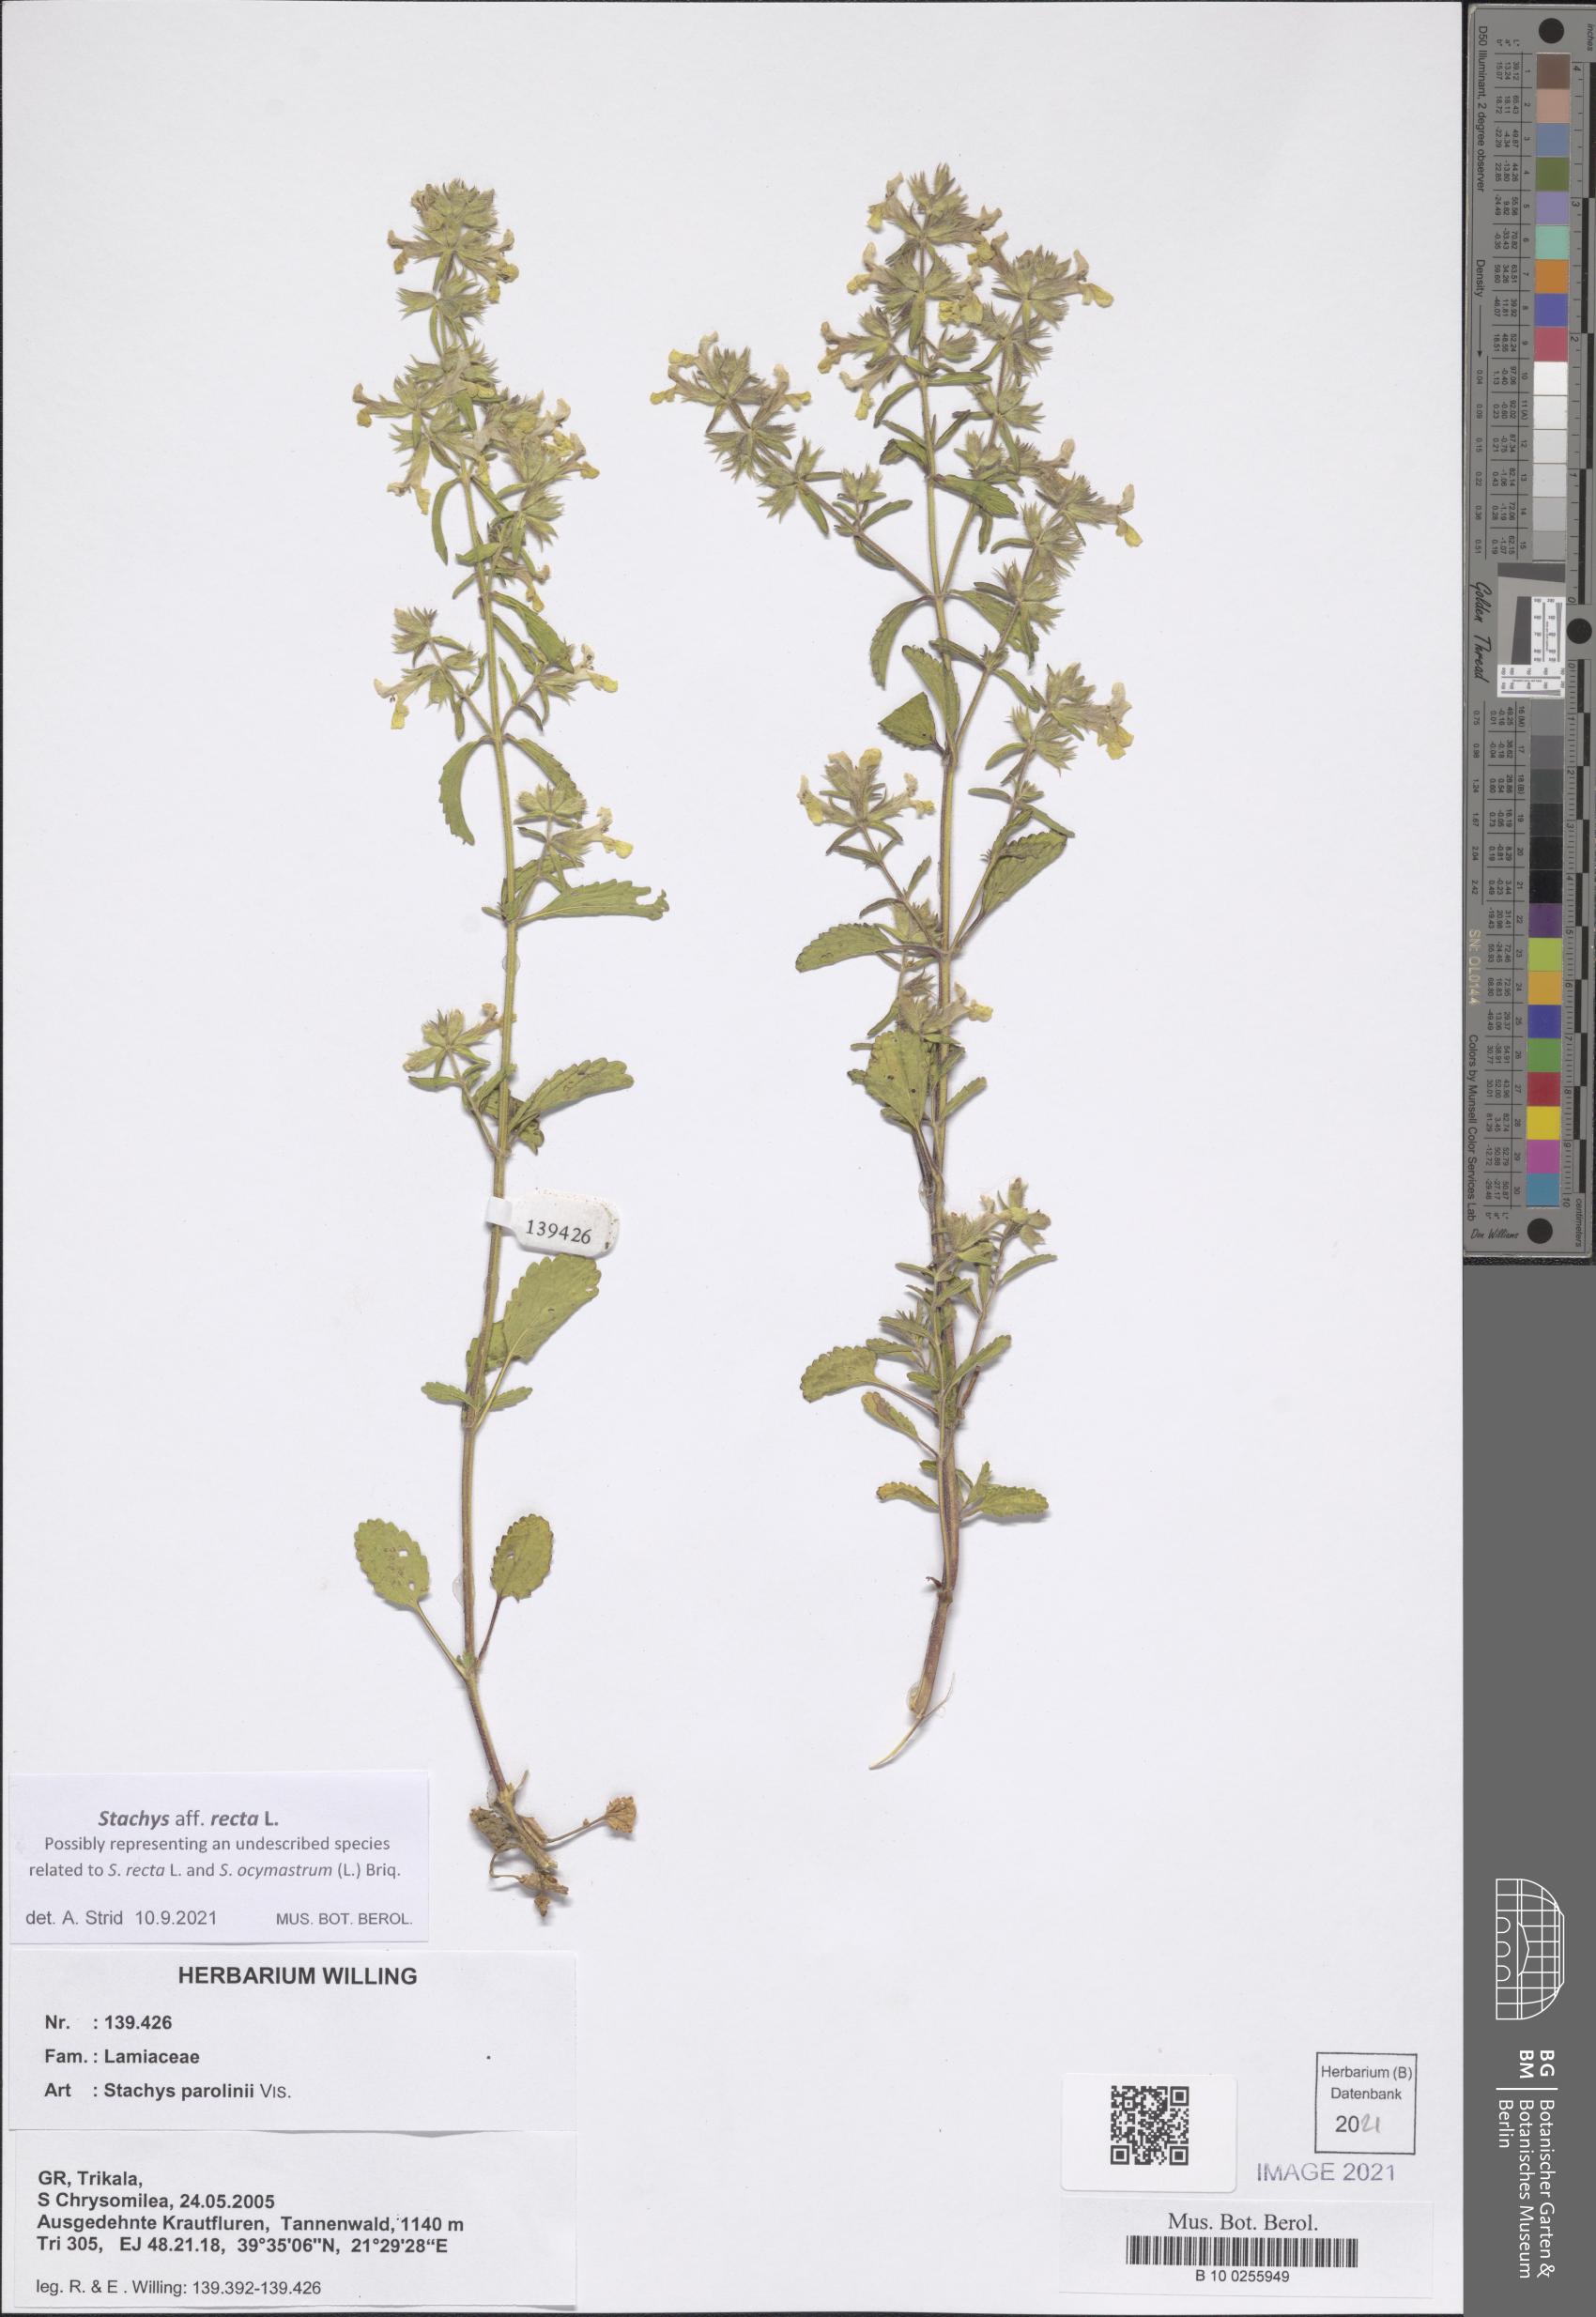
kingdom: Plantae
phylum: Tracheophyta
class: Magnoliopsida
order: Lamiales
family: Lamiaceae
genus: Stachys
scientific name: Stachys parolinii
